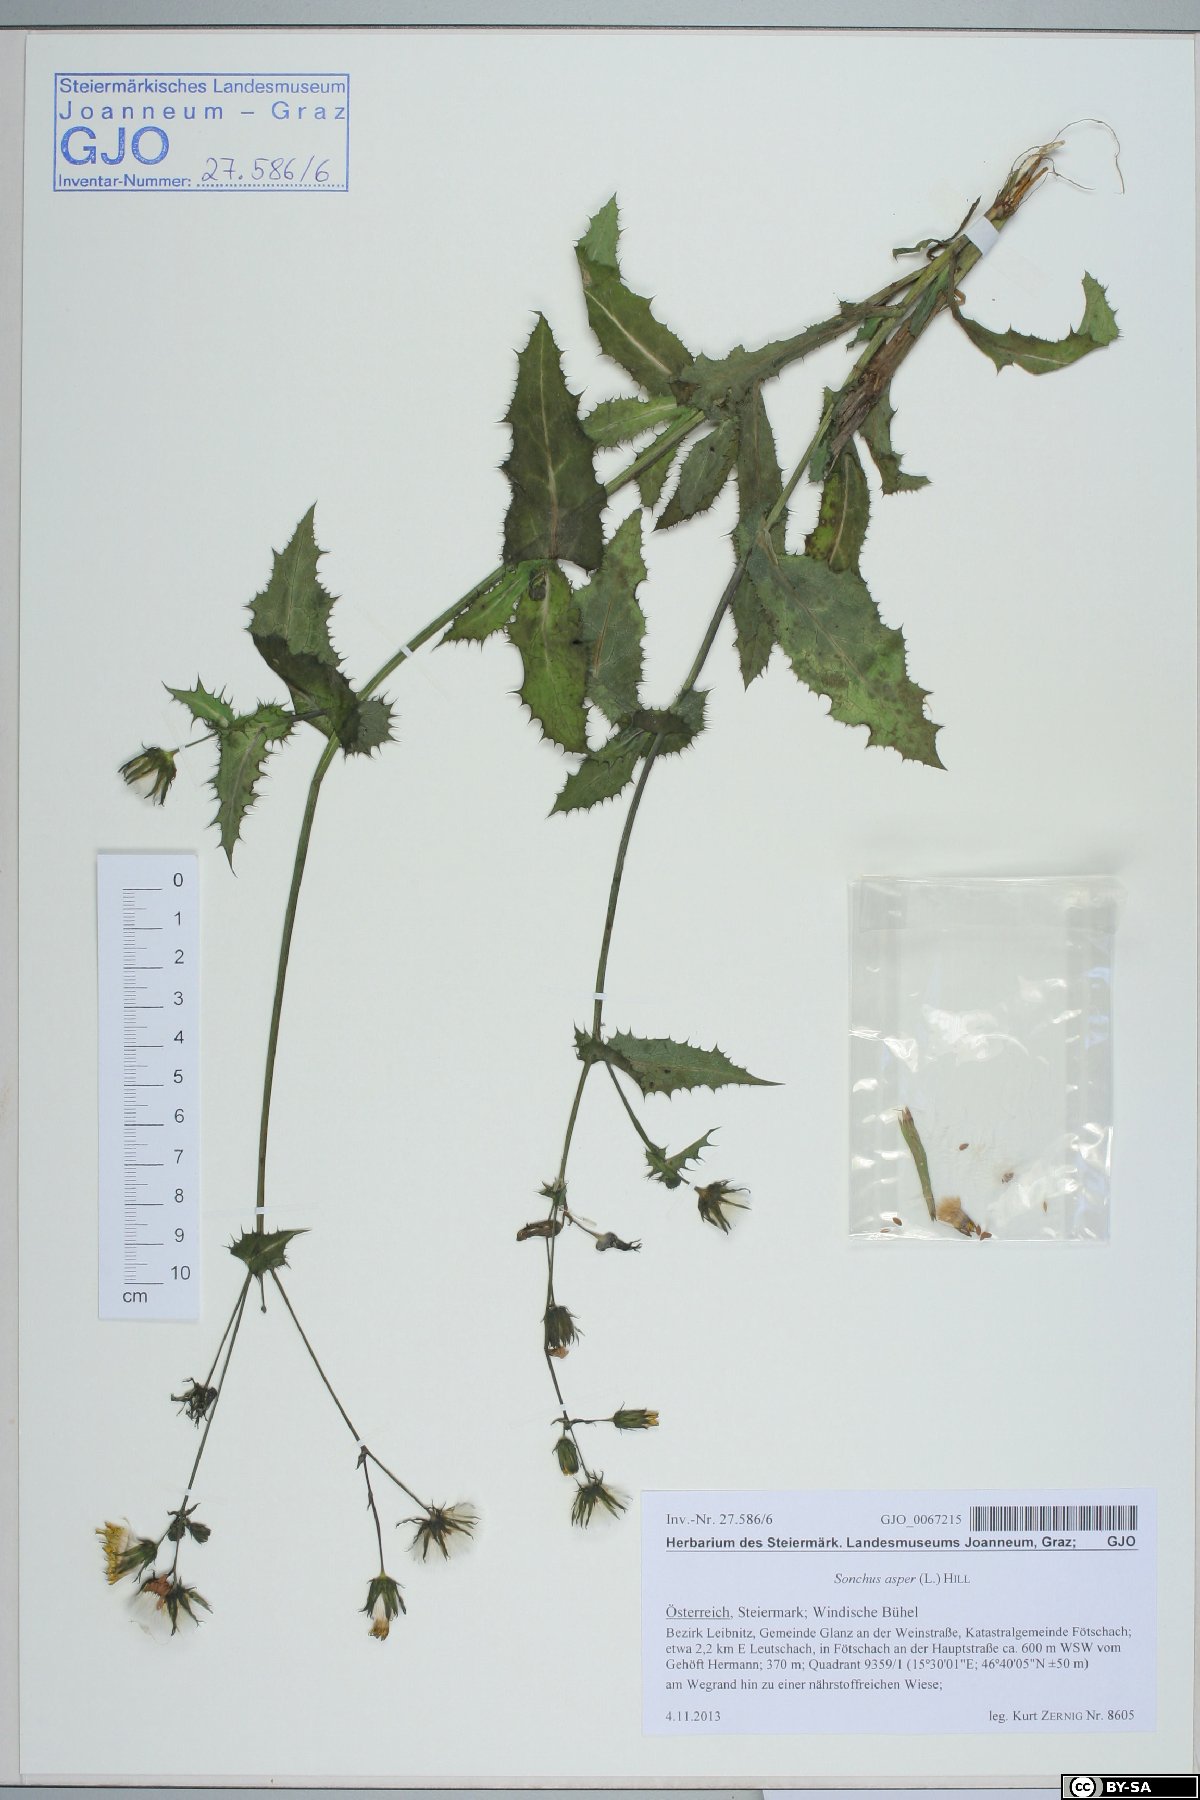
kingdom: Plantae
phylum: Tracheophyta
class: Magnoliopsida
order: Asterales
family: Asteraceae
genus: Sonchus
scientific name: Sonchus asper
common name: Prickly sow-thistle
